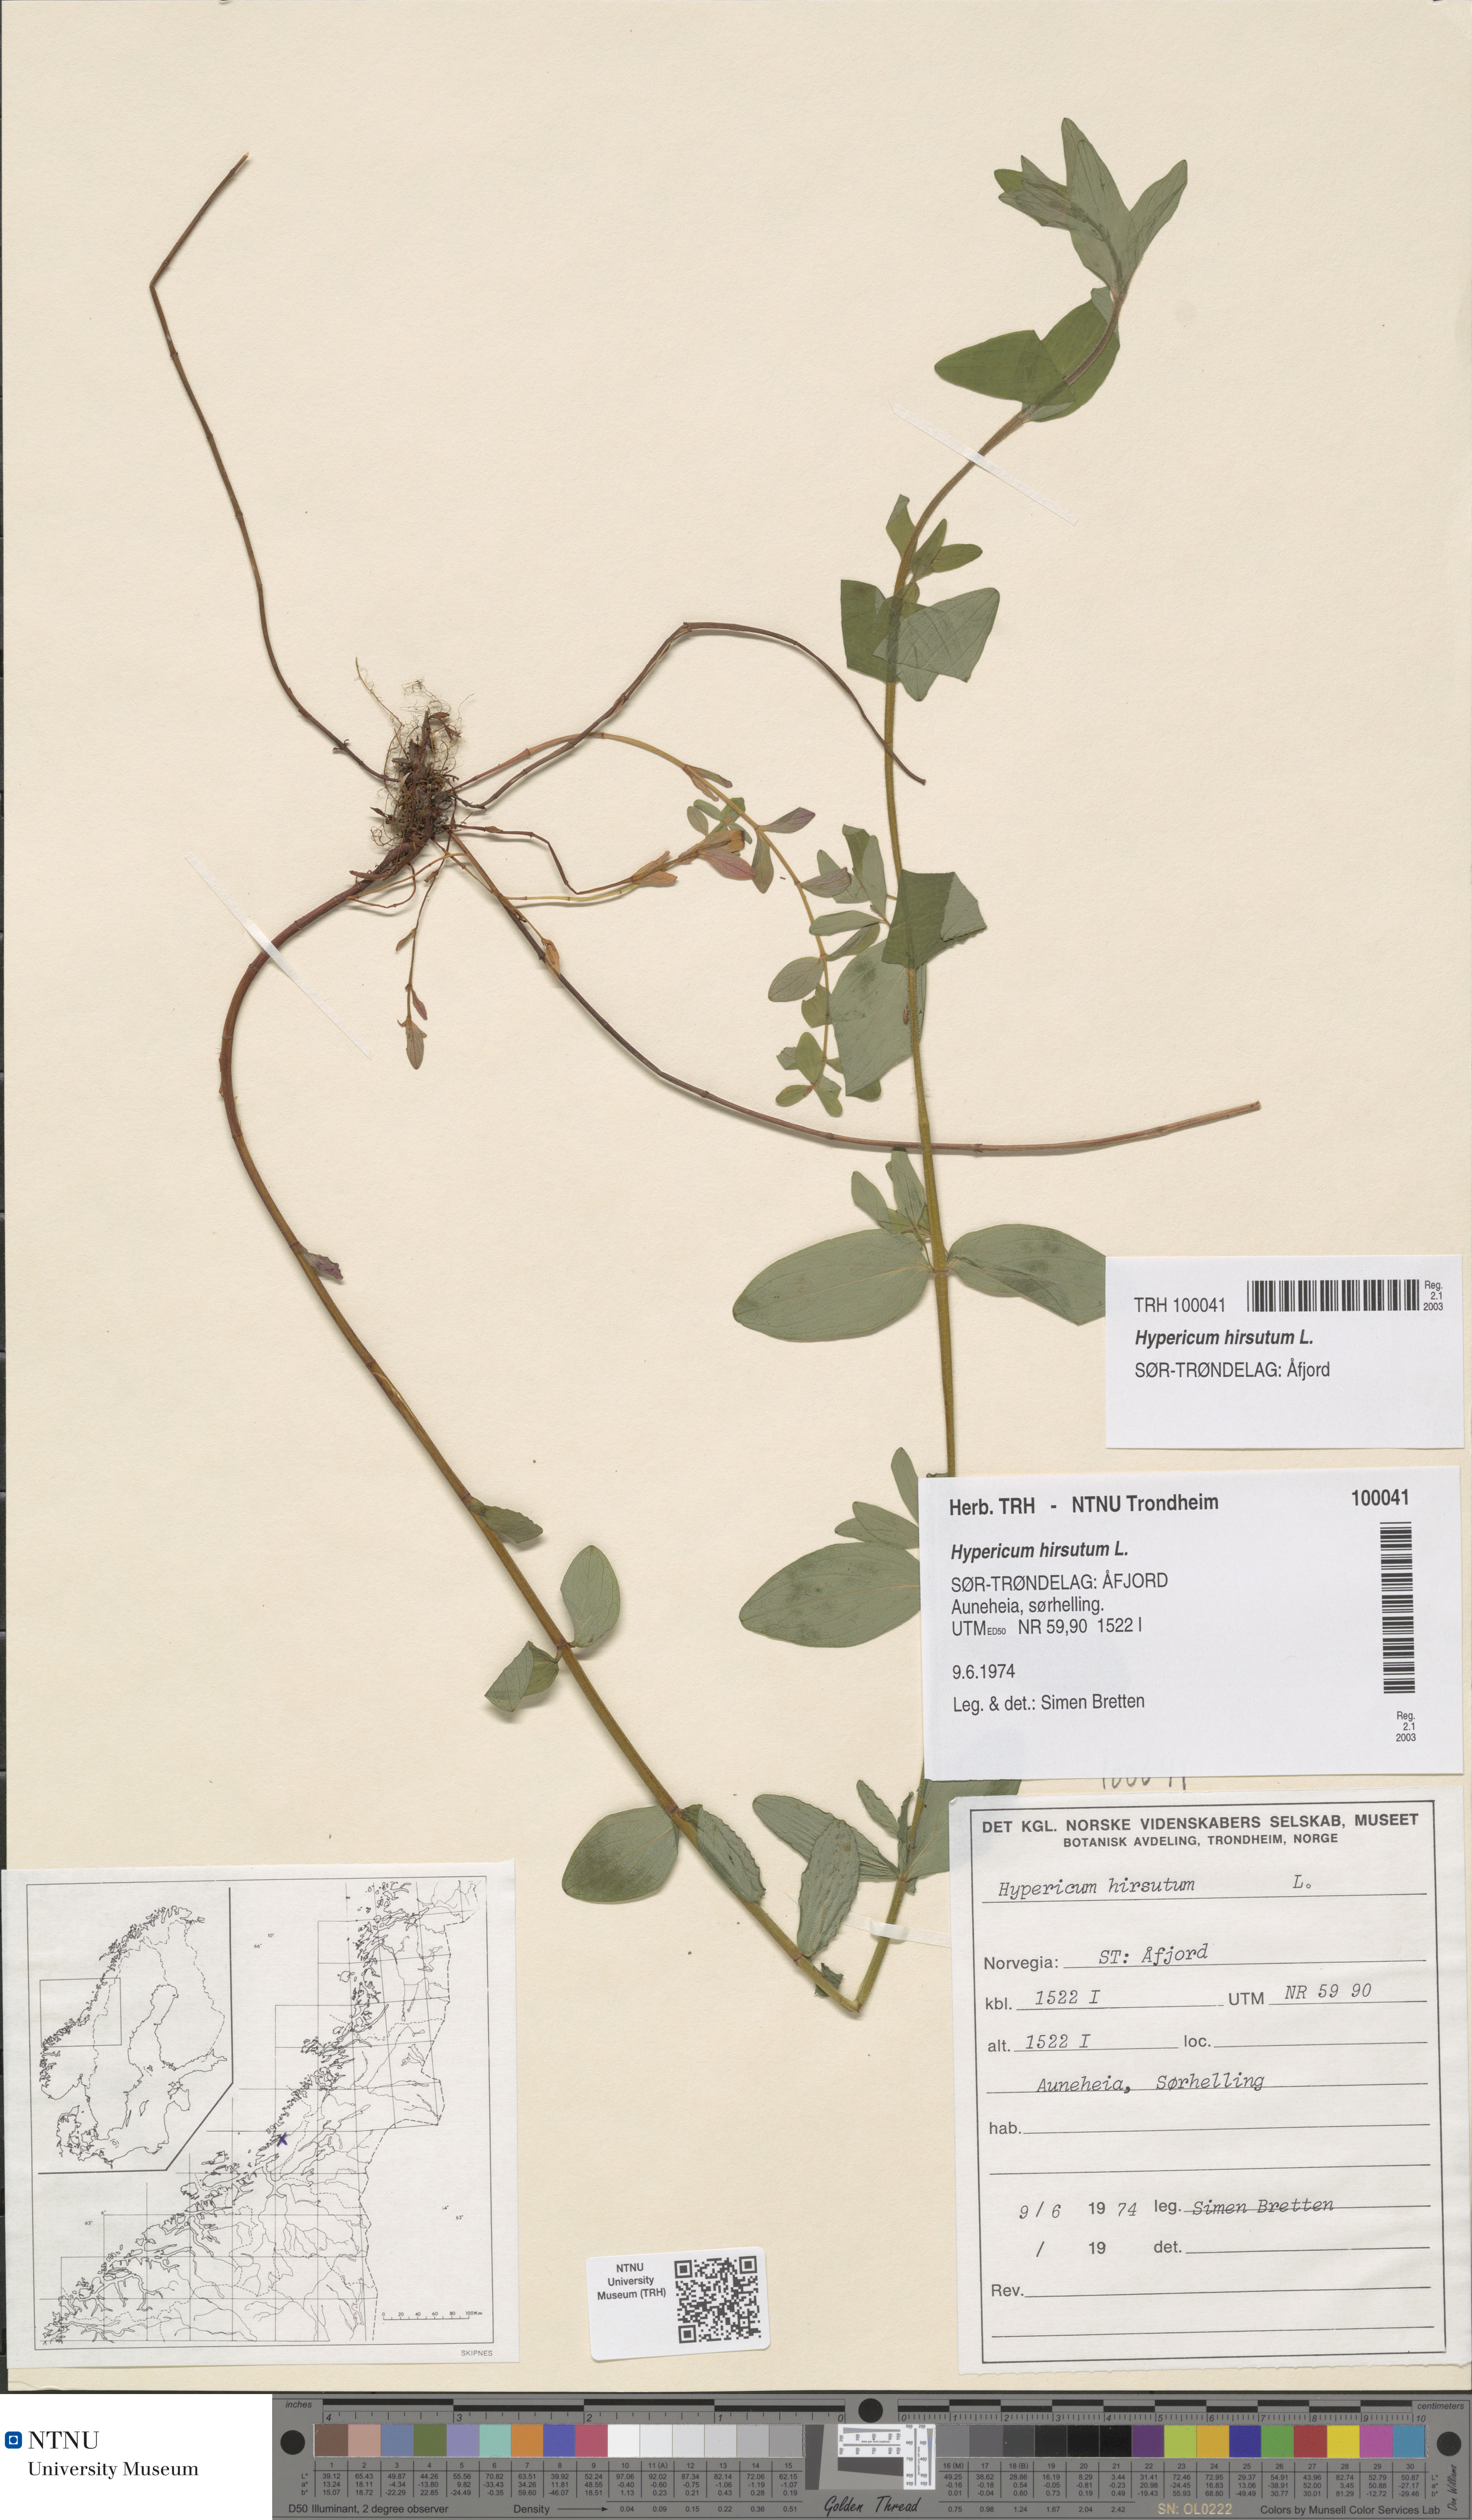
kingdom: Plantae
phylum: Tracheophyta
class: Magnoliopsida
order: Malpighiales
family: Hypericaceae
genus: Hypericum
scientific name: Hypericum hirsutum
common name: Hairy st. john's-wort
